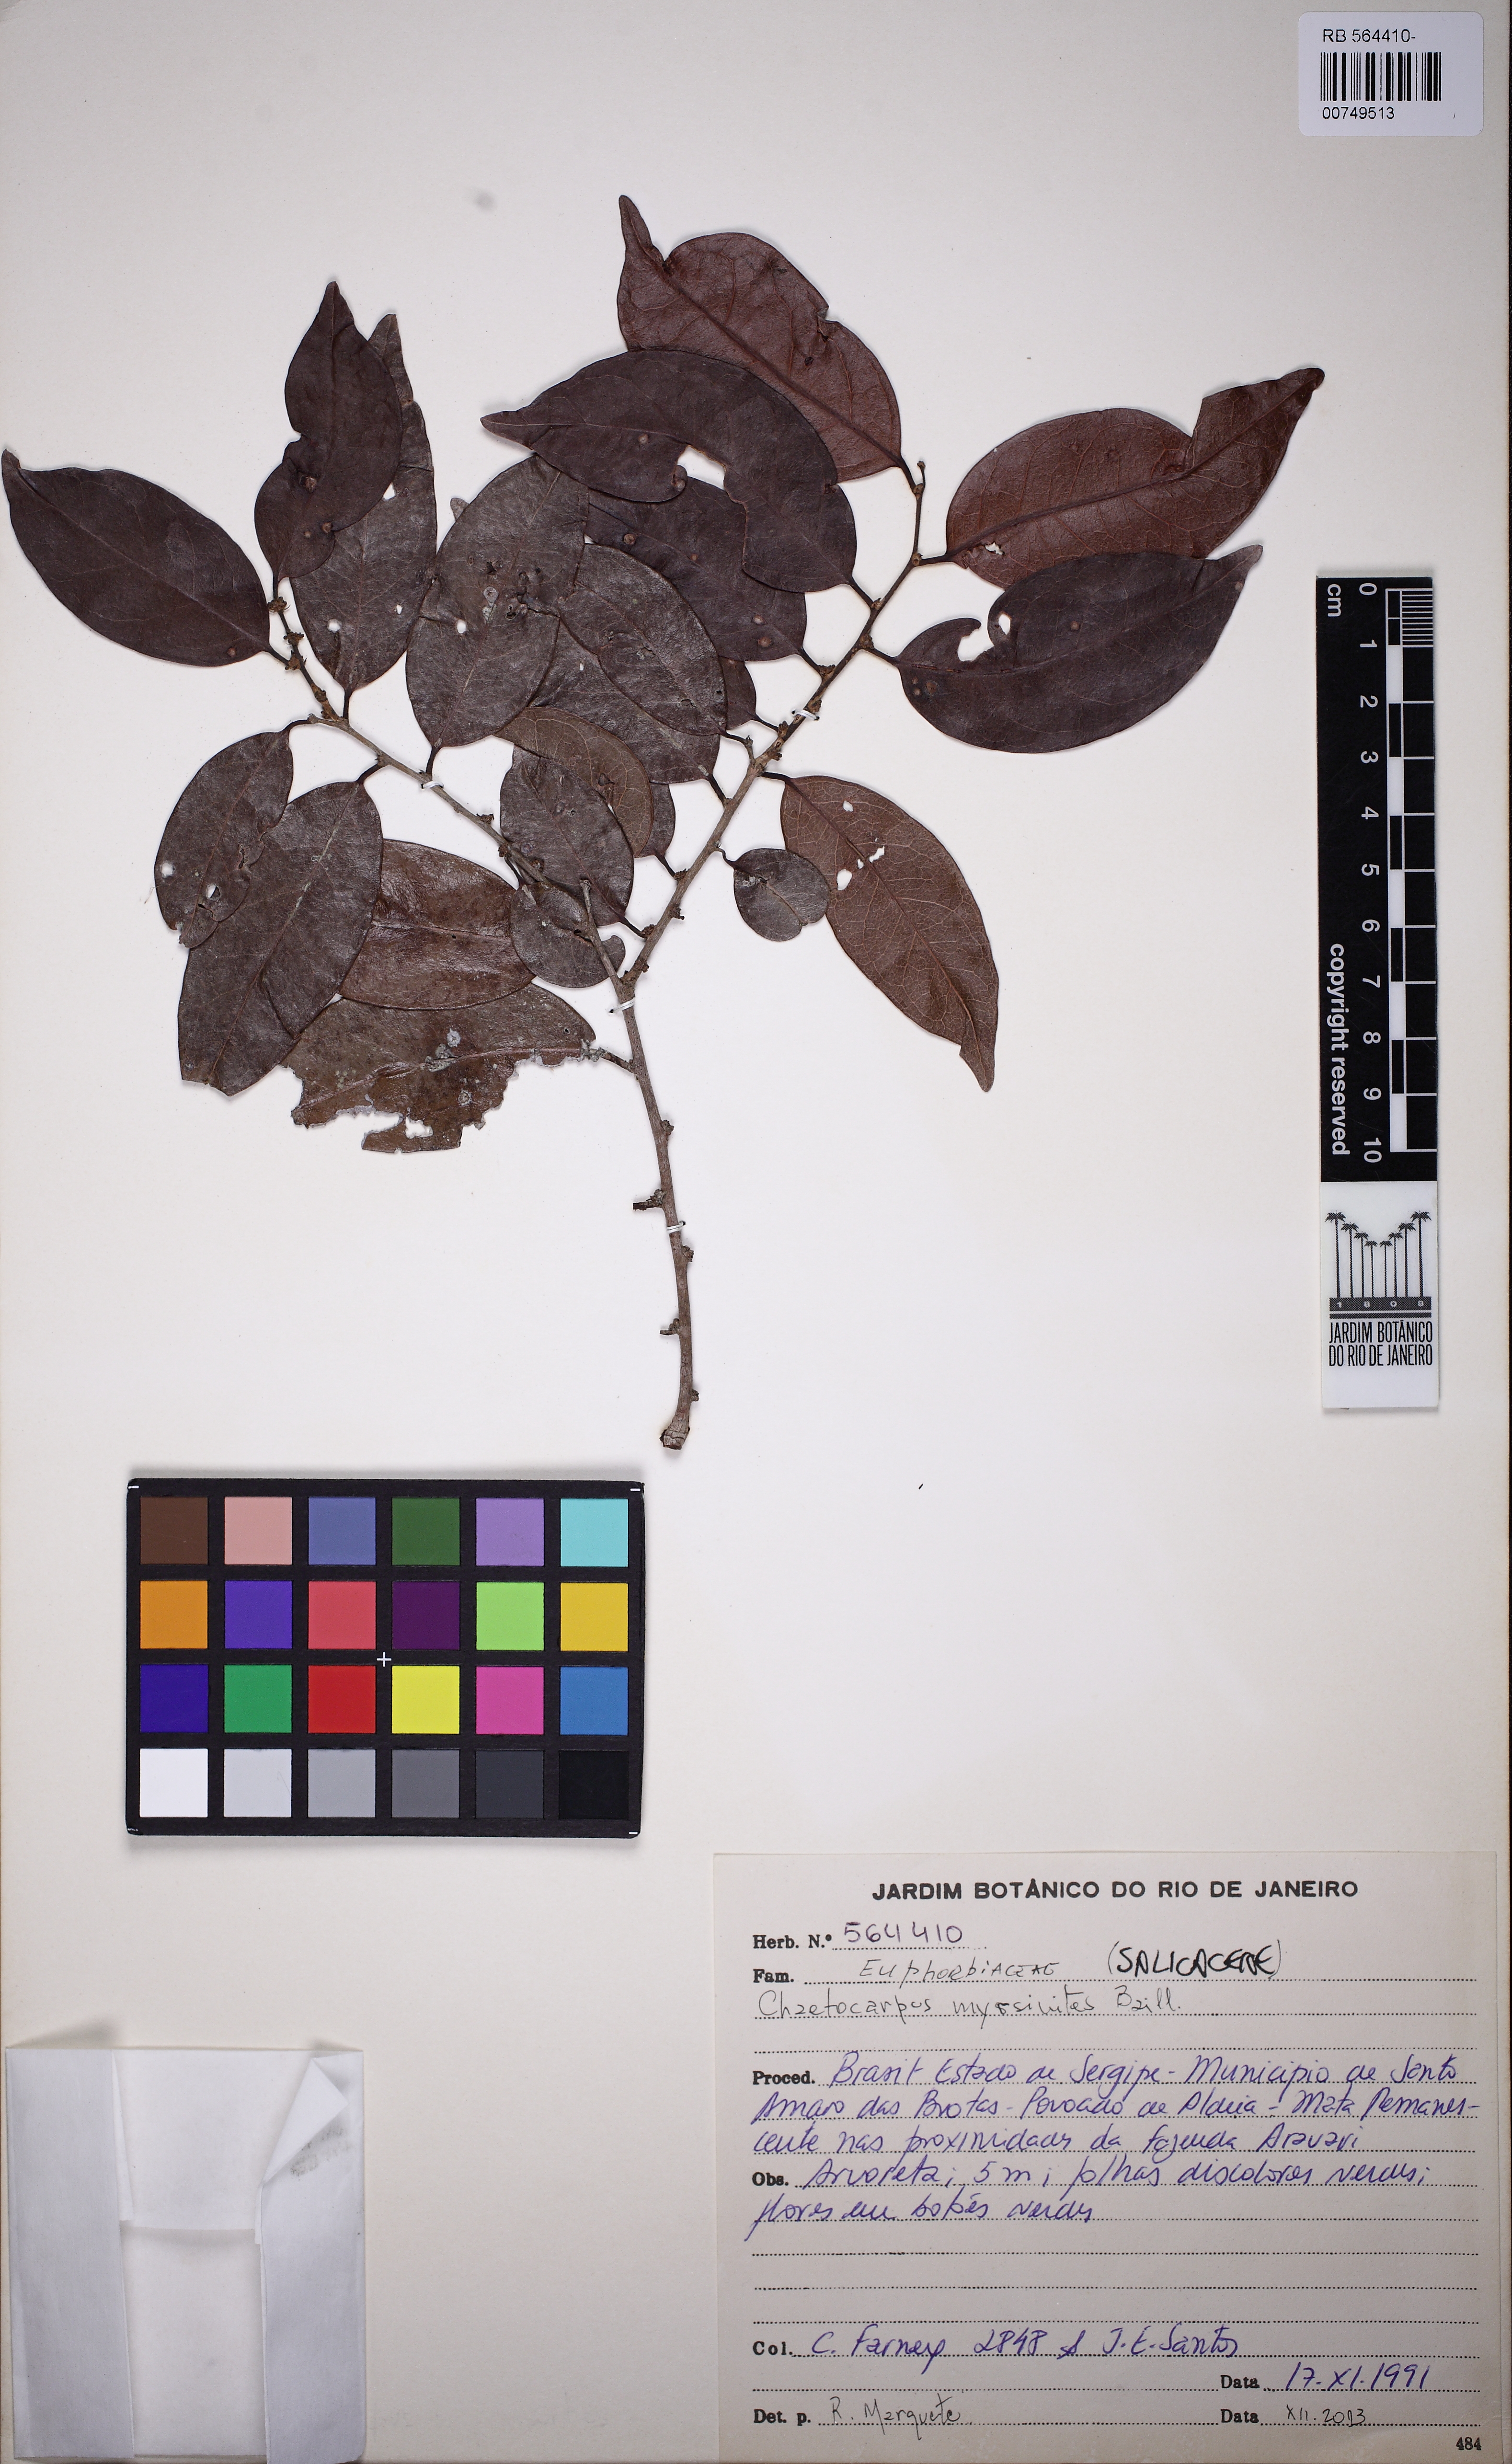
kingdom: Plantae
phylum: Tracheophyta
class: Magnoliopsida
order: Malpighiales
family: Peraceae
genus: Chaetocarpus
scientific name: Chaetocarpus myrsinites
